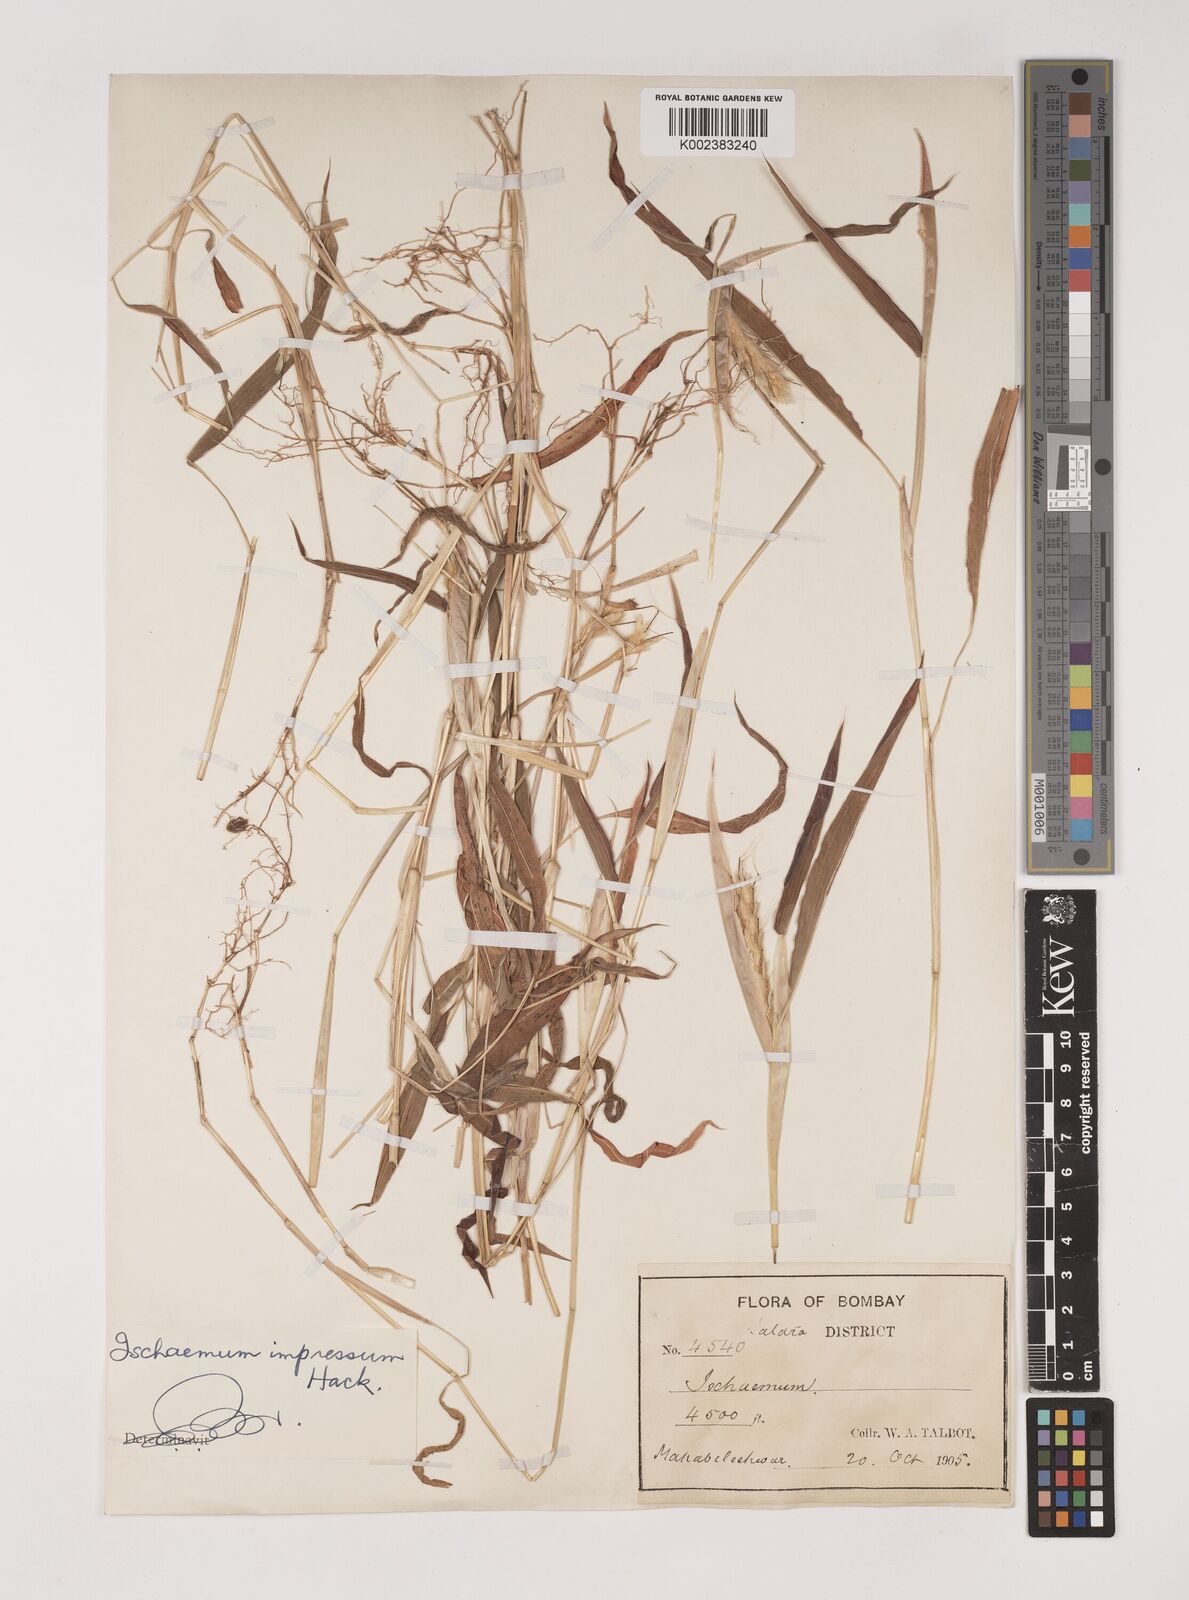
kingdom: Plantae
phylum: Tracheophyta
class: Liliopsida
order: Poales
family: Poaceae
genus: Ischaemum
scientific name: Ischaemum impressum
